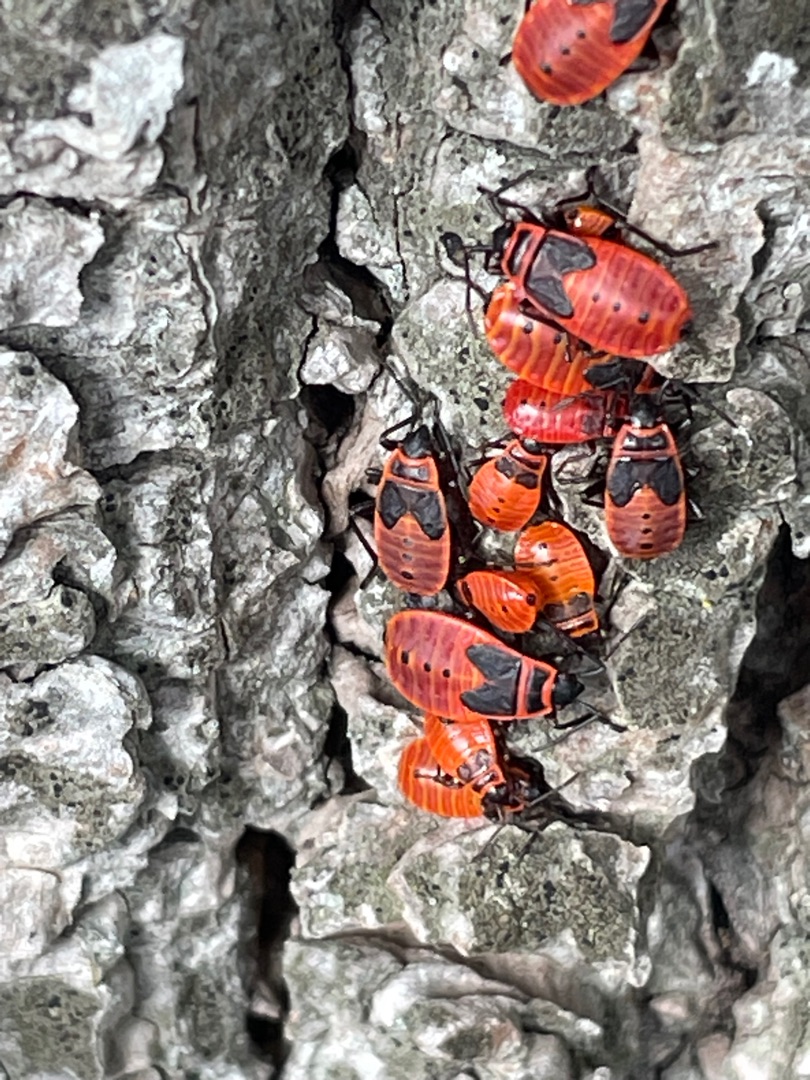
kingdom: Animalia
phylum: Arthropoda
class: Insecta
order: Hemiptera
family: Pyrrhocoridae
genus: Pyrrhocoris
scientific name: Pyrrhocoris apterus
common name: Ildtæge
